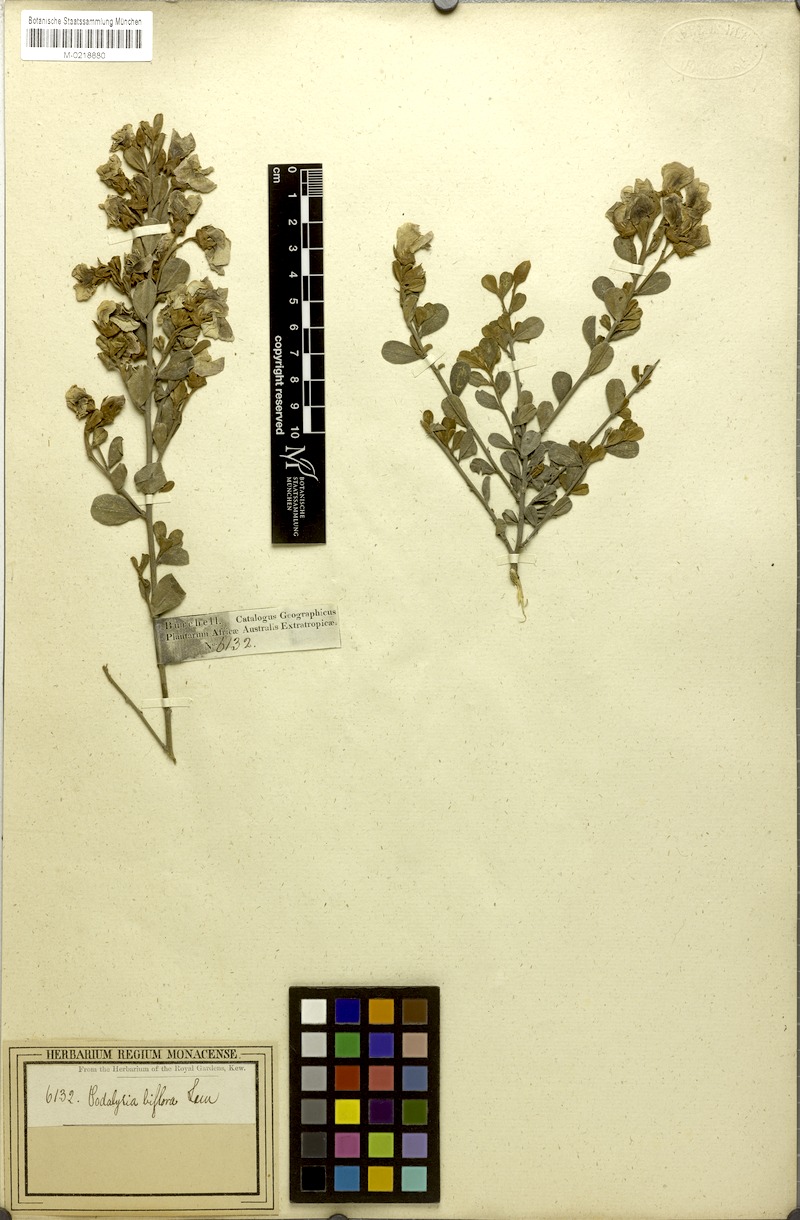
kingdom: Plantae
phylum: Tracheophyta
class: Magnoliopsida
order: Fabales
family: Fabaceae
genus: Podalyria
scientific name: Podalyria biflora
